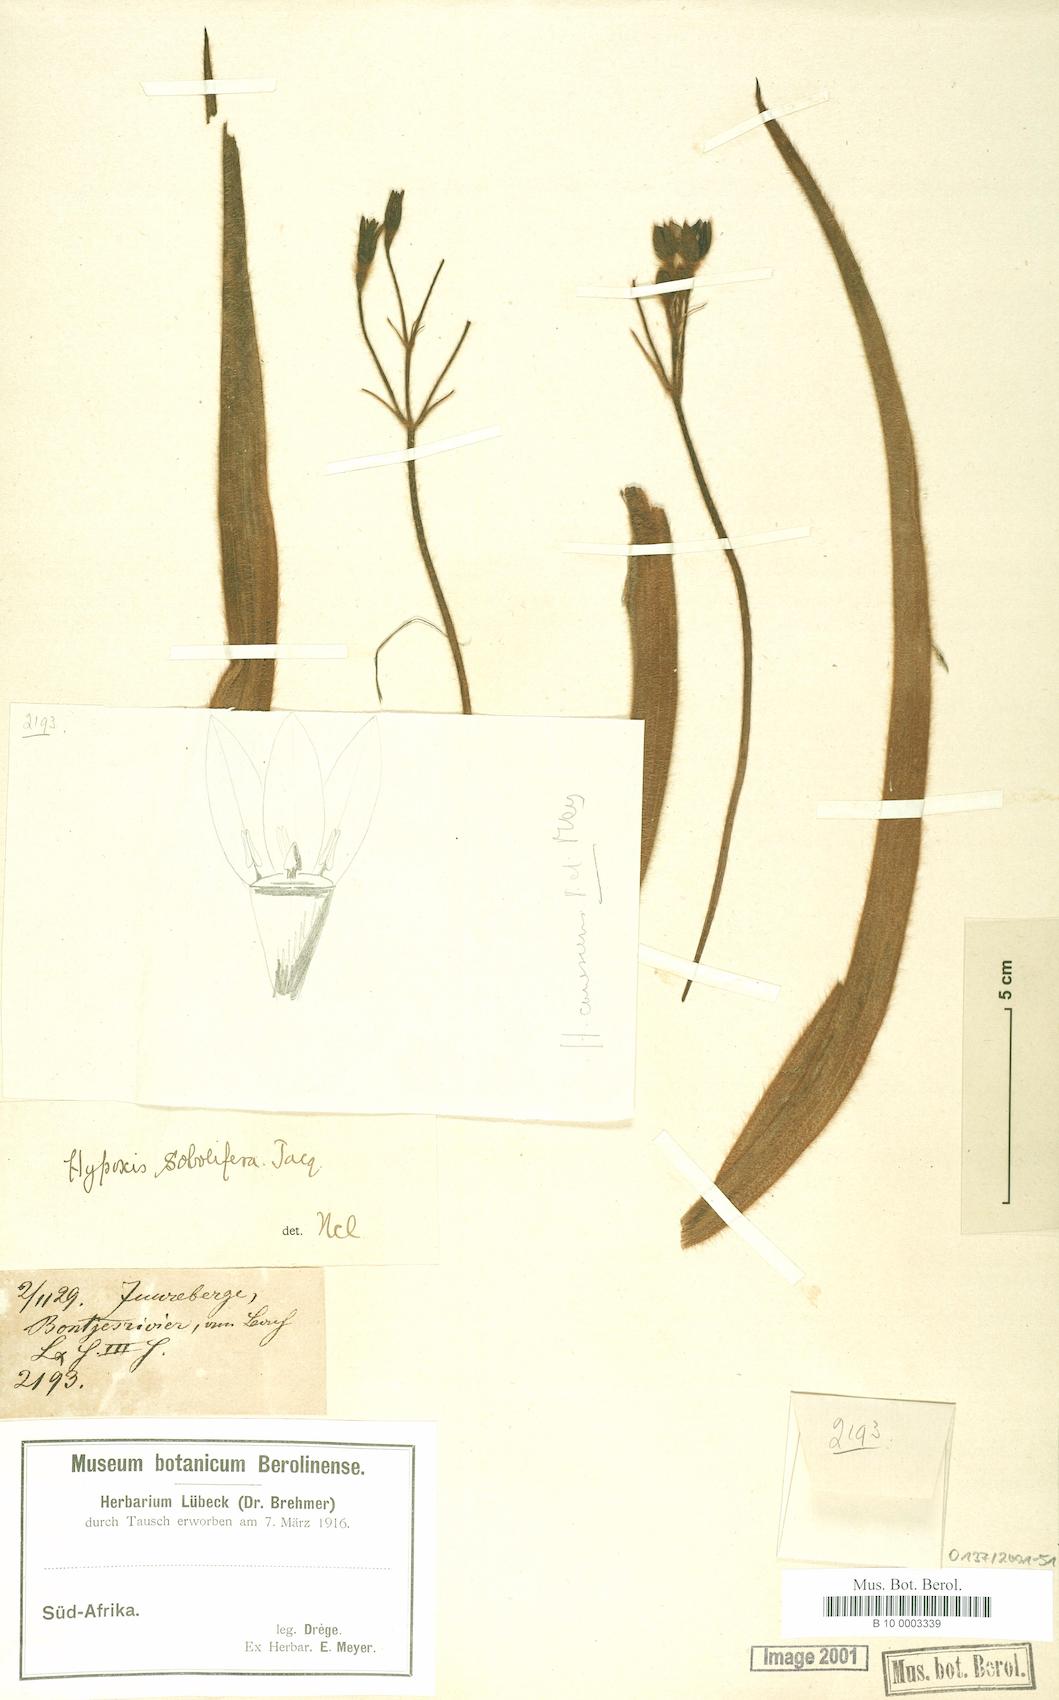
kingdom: Plantae
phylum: Tracheophyta
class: Liliopsida
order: Asparagales
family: Hypoxidaceae
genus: Hypoxis
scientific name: Hypoxis sobolifera
